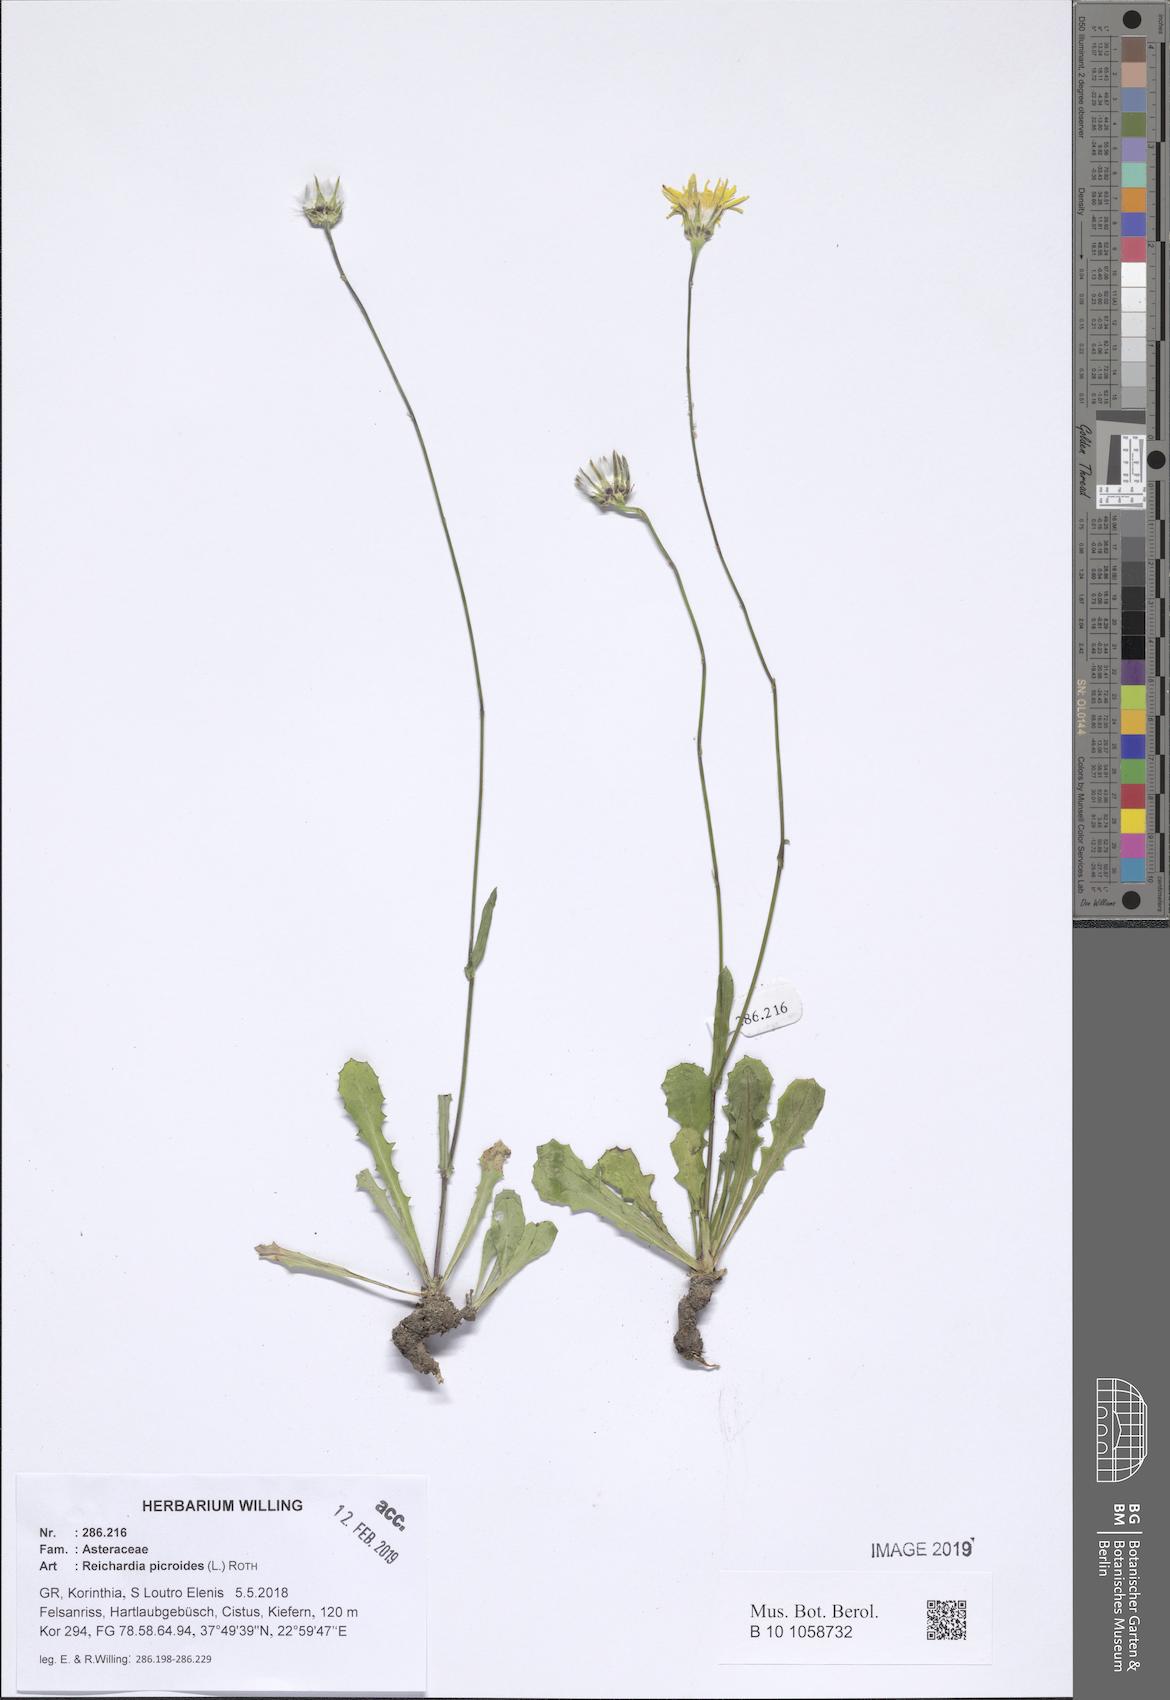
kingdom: Plantae
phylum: Tracheophyta
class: Magnoliopsida
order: Asterales
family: Asteraceae
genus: Reichardia
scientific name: Reichardia picroides
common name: Common brighteyes
